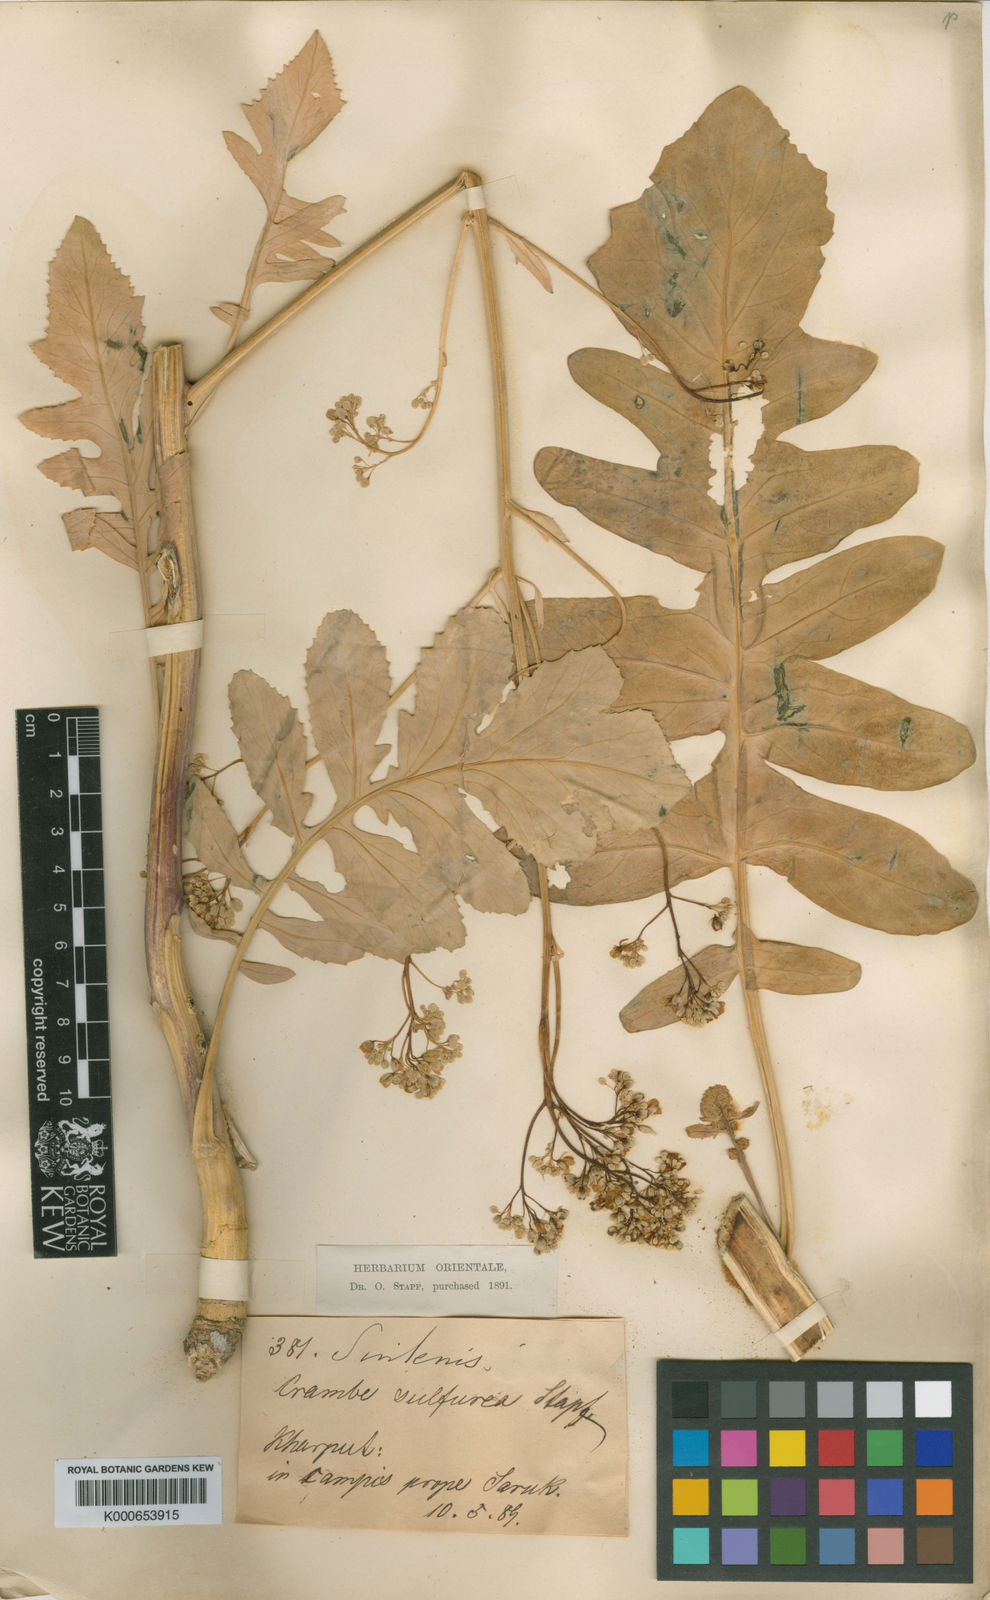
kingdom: Plantae
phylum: Tracheophyta
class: Magnoliopsida
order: Brassicales
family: Brassicaceae
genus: Crambe
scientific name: Crambe orientalis
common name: Oriental sea-kale
